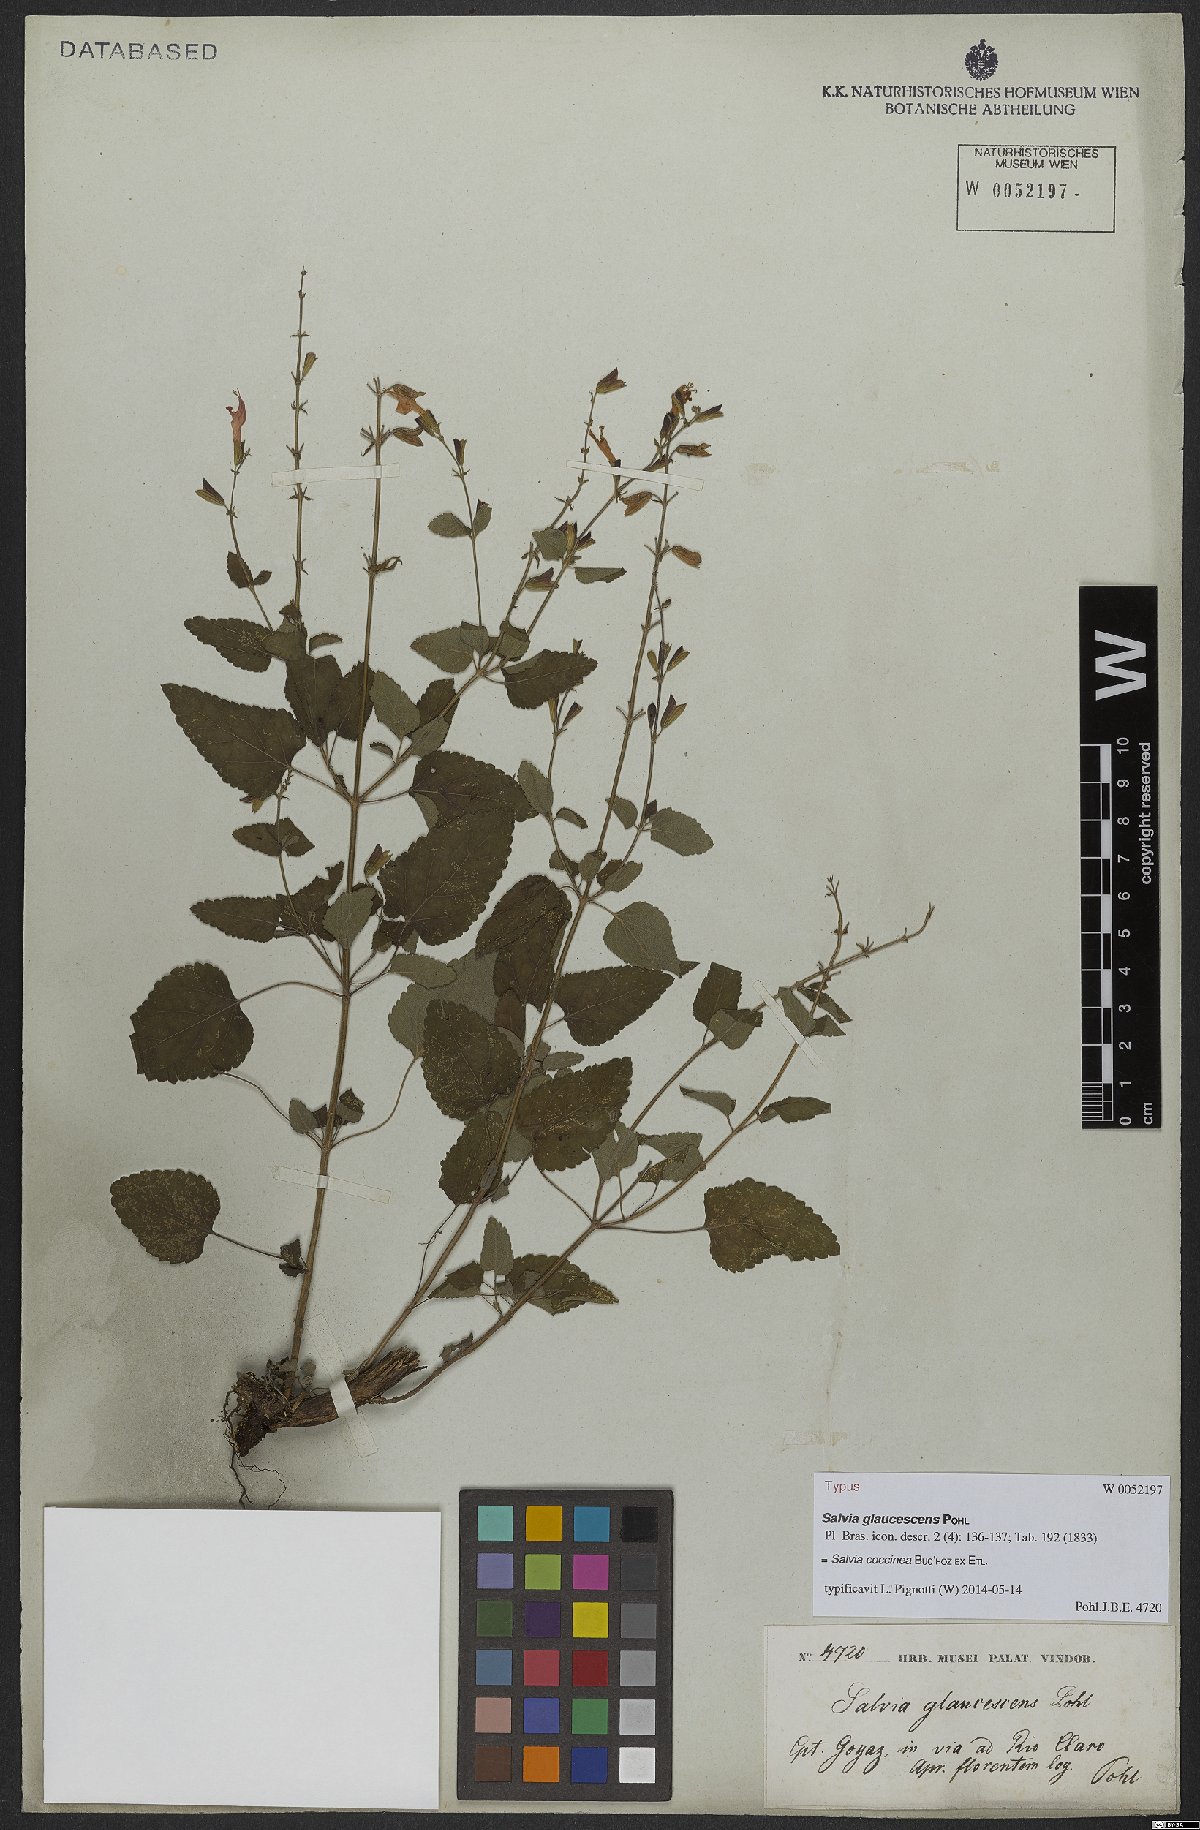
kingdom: Plantae
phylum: Tracheophyta
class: Magnoliopsida
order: Lamiales
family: Lamiaceae
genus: Salvia
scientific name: Salvia coccinea
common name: Blood sage
